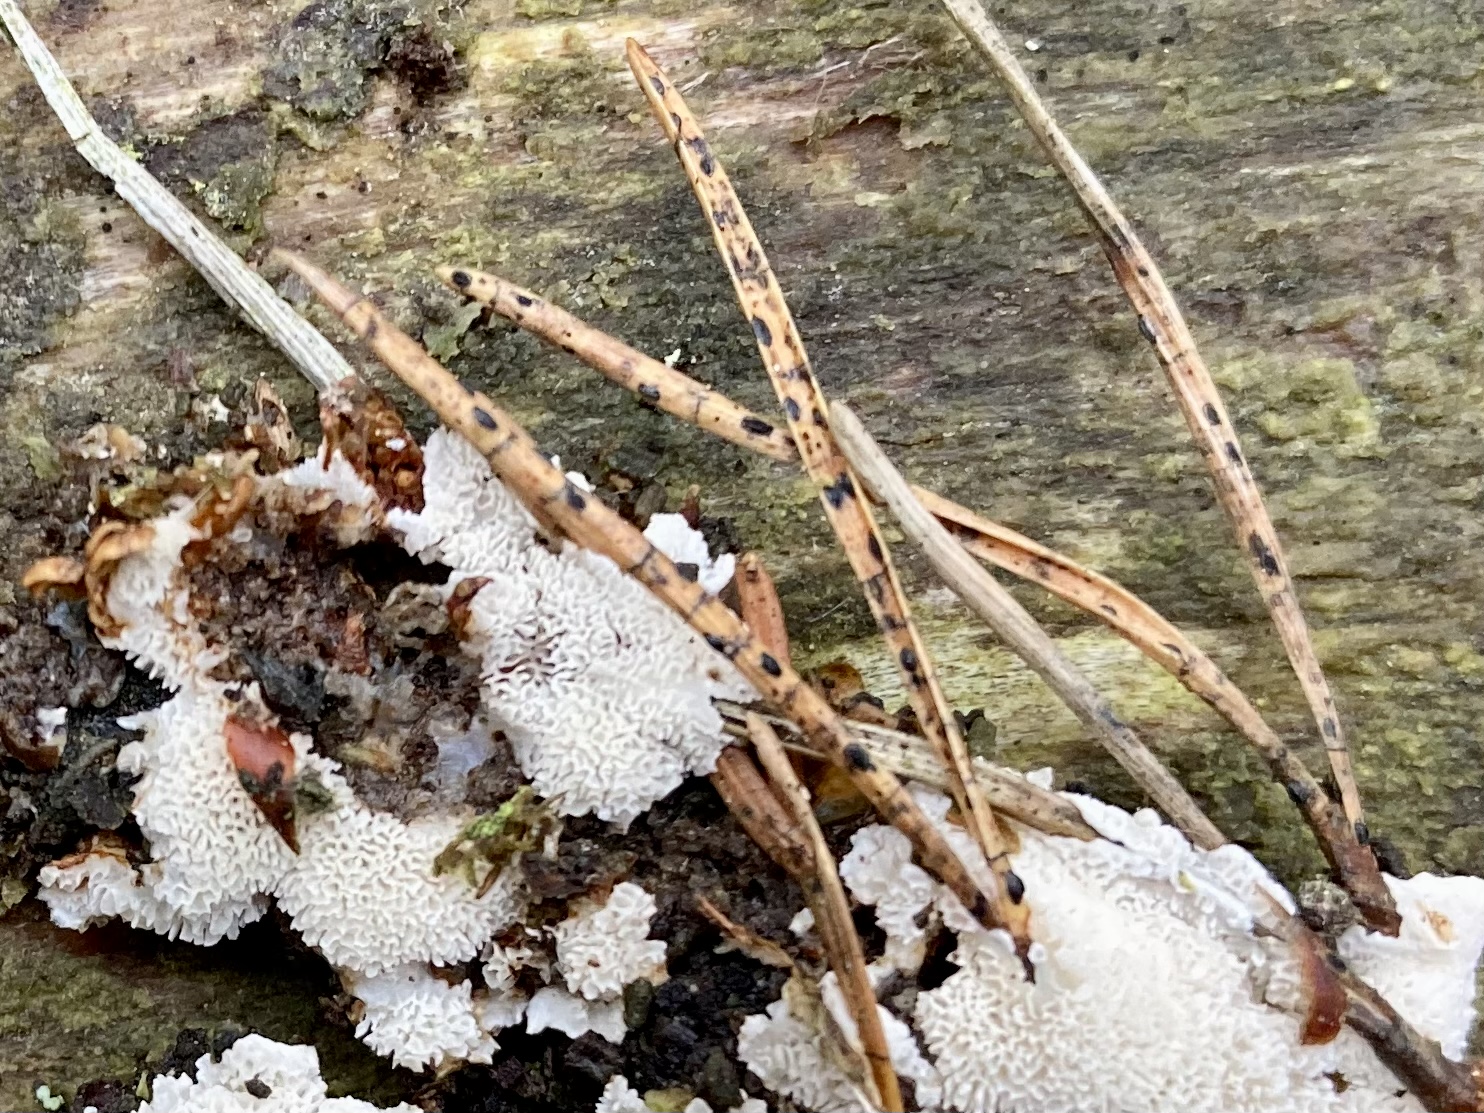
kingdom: Fungi
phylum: Ascomycota
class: Leotiomycetes
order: Rhytismatales
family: Rhytismataceae
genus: Lophodermium
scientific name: Lophodermium pinastri
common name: fyrre-fureplet
